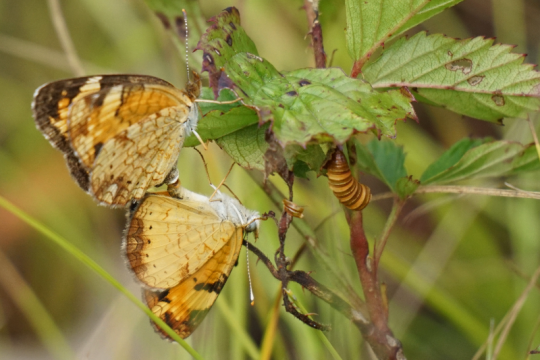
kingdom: Animalia
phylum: Arthropoda
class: Insecta
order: Lepidoptera
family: Nymphalidae
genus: Phyciodes
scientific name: Phyciodes tharos
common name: Pearl Crescent
